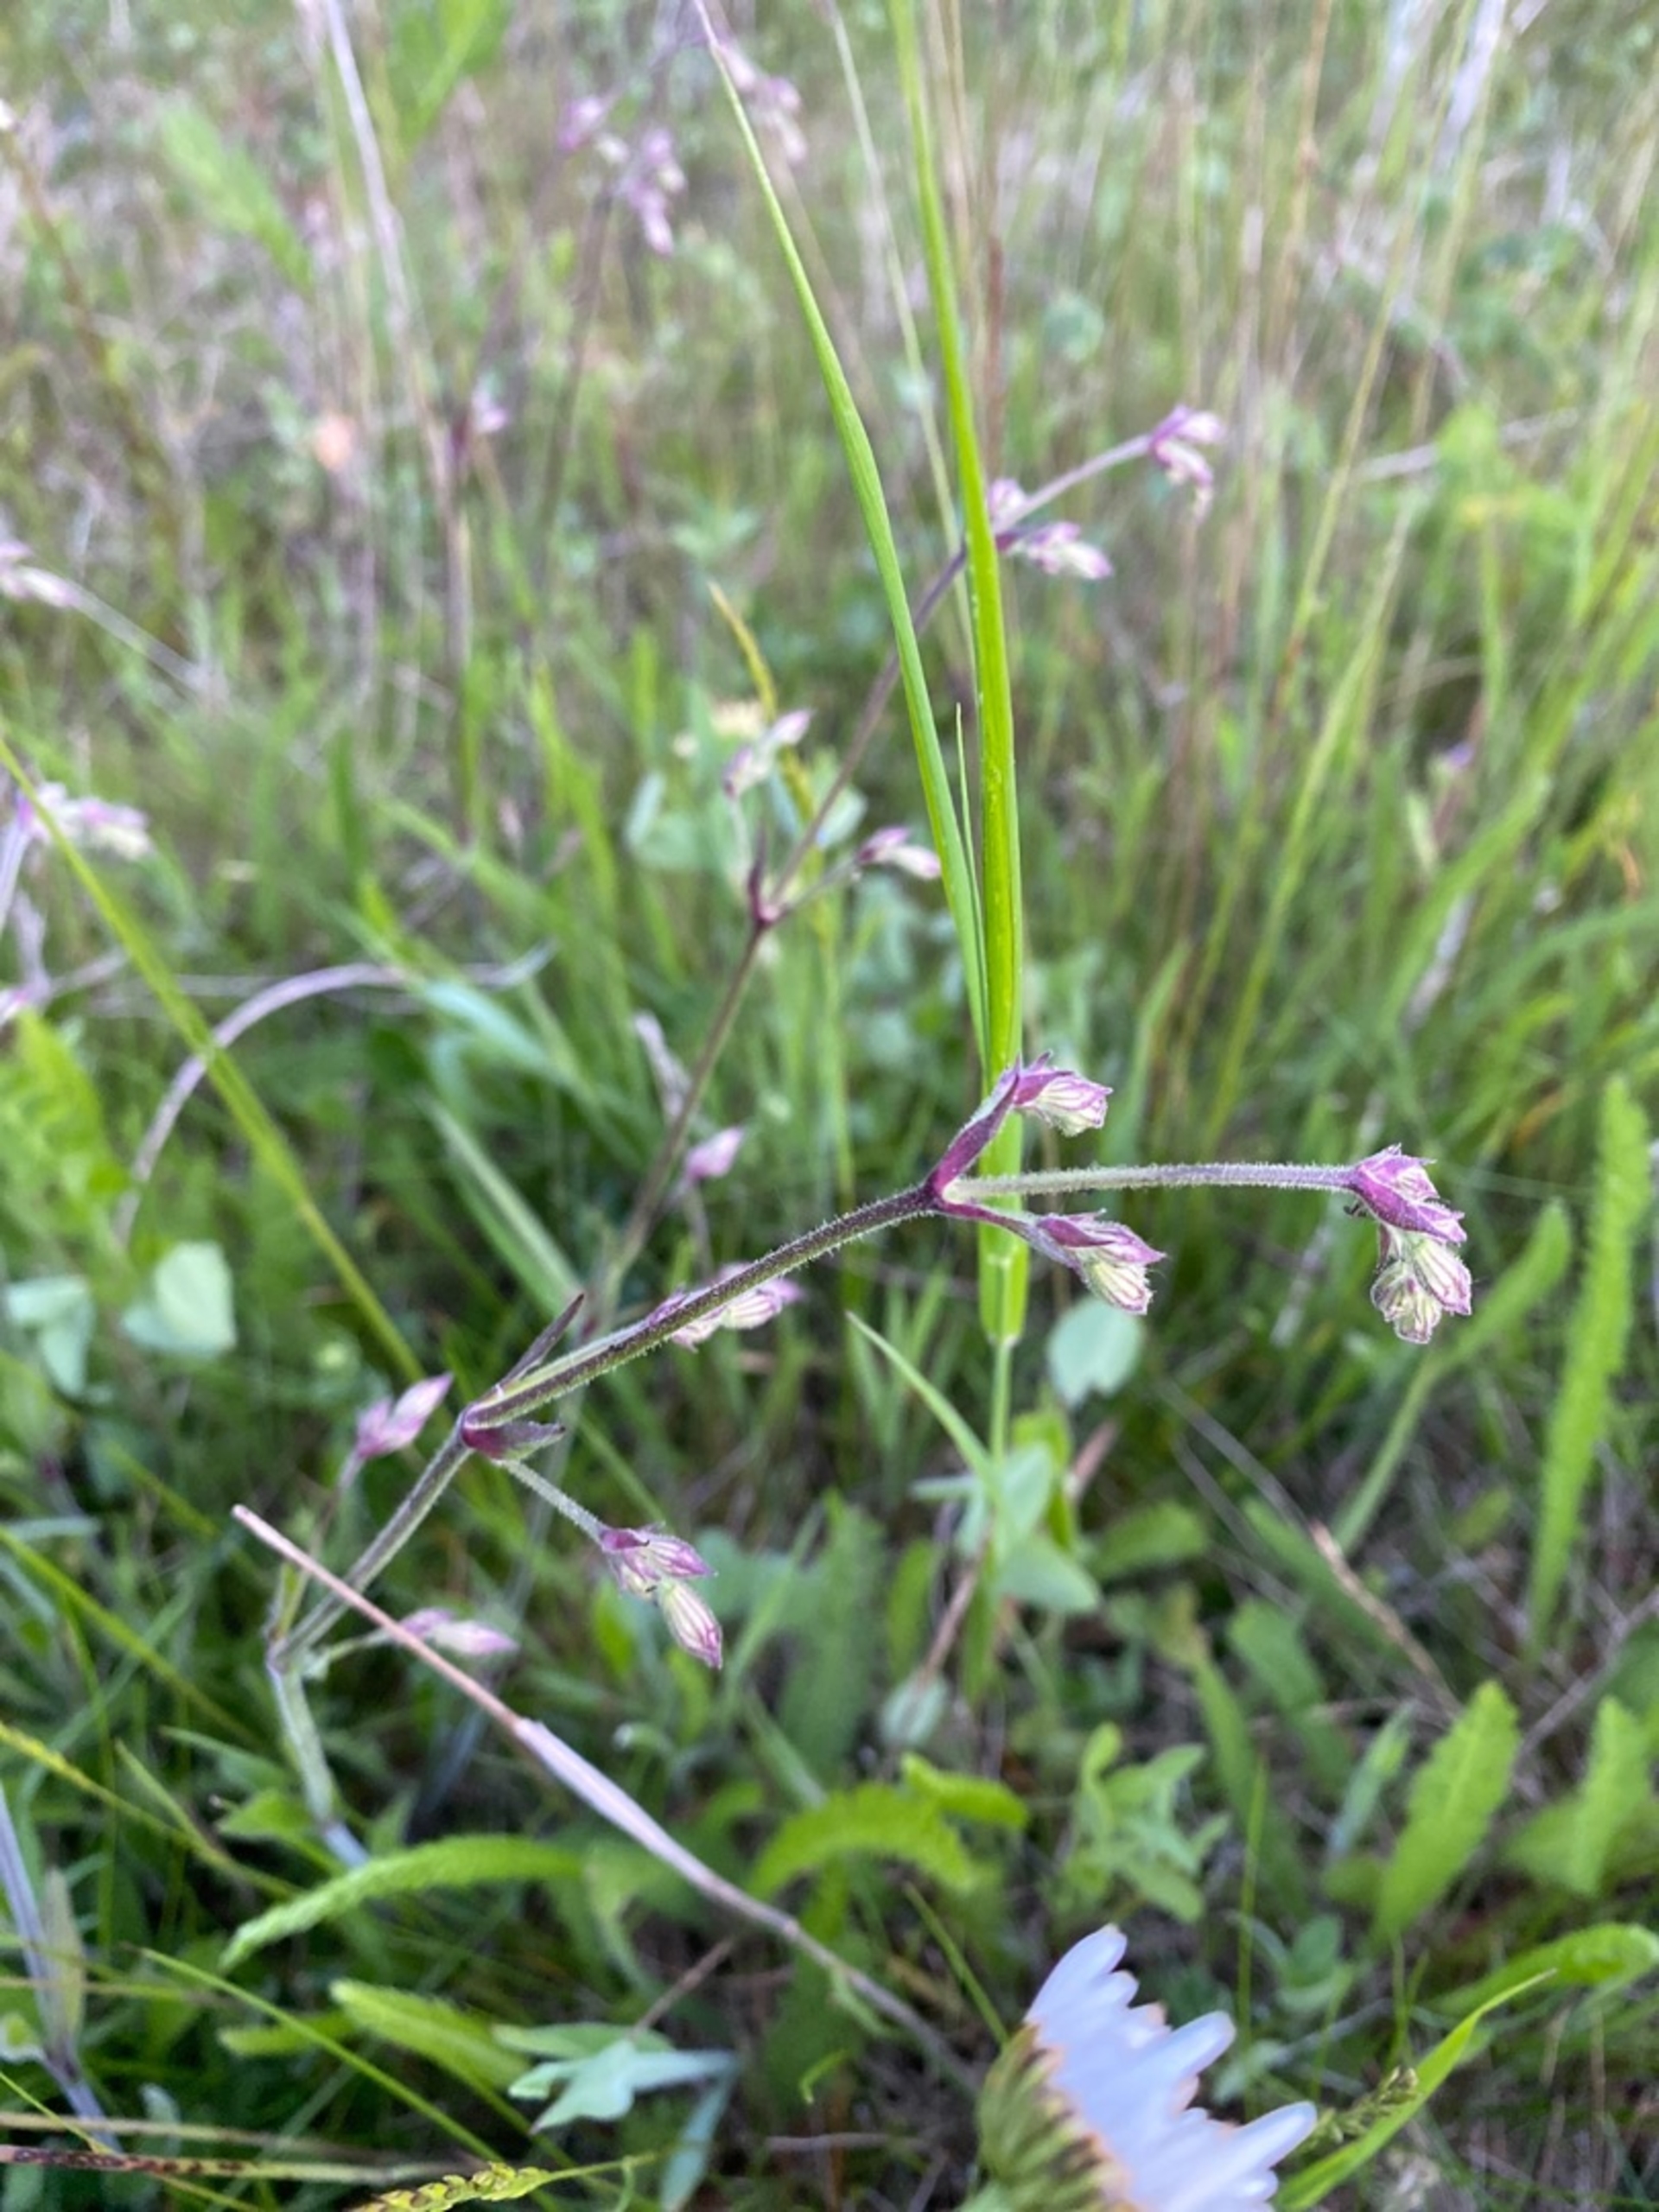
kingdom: Plantae
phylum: Tracheophyta
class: Magnoliopsida
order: Caryophyllales
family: Caryophyllaceae
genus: Silene
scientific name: Silene nutans
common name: Nikkende limurt
